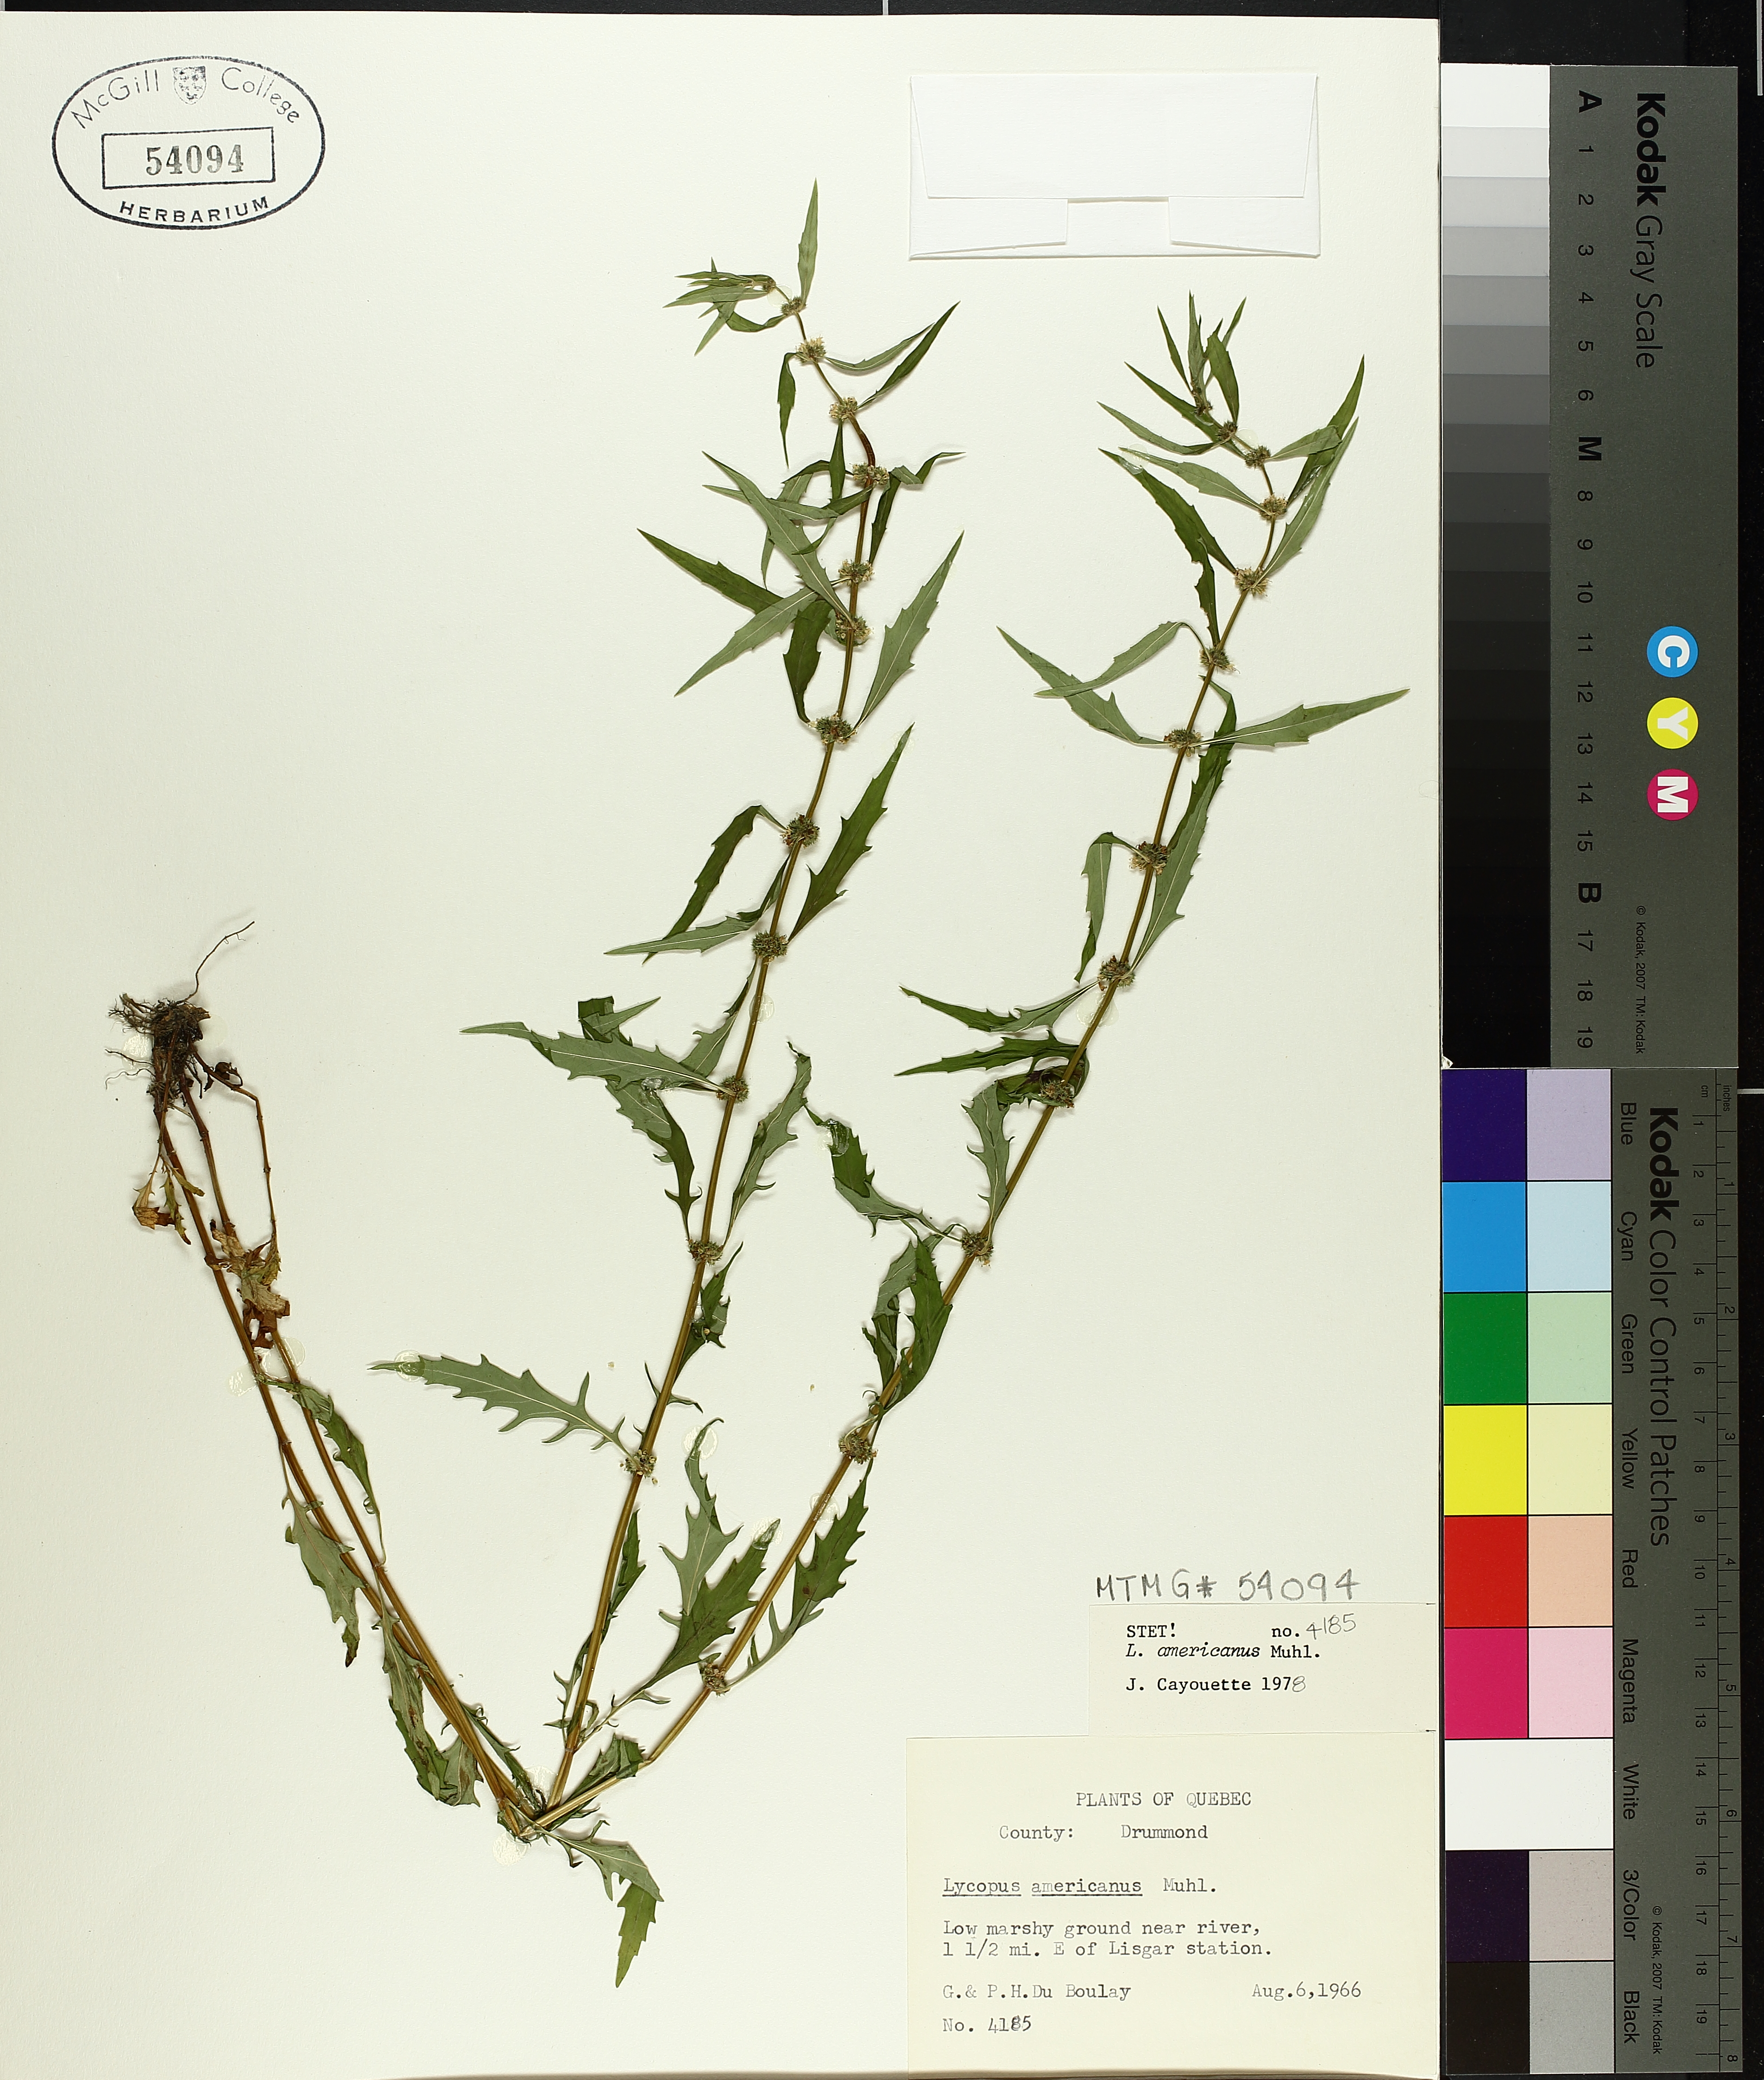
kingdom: Plantae
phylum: Tracheophyta
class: Magnoliopsida
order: Lamiales
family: Lamiaceae
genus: Lycopus
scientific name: Lycopus americanus
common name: American bugleweed
